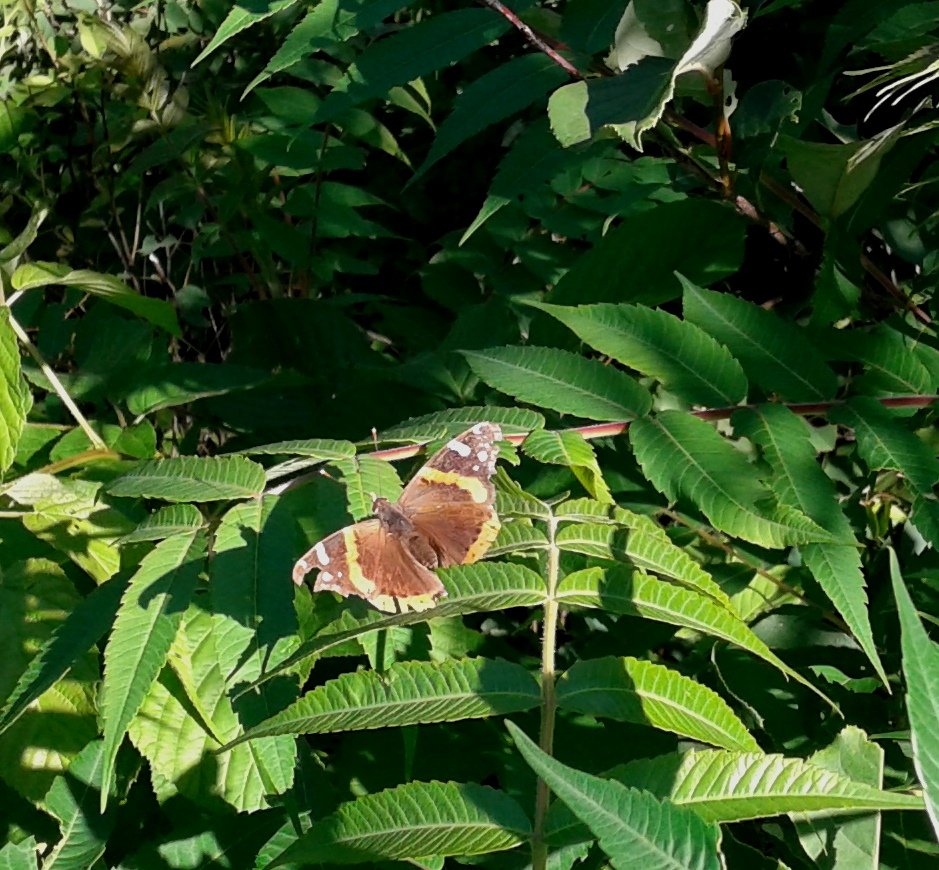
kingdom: Animalia
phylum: Arthropoda
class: Insecta
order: Lepidoptera
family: Nymphalidae
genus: Vanessa
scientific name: Vanessa atalanta
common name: Red Admiral
